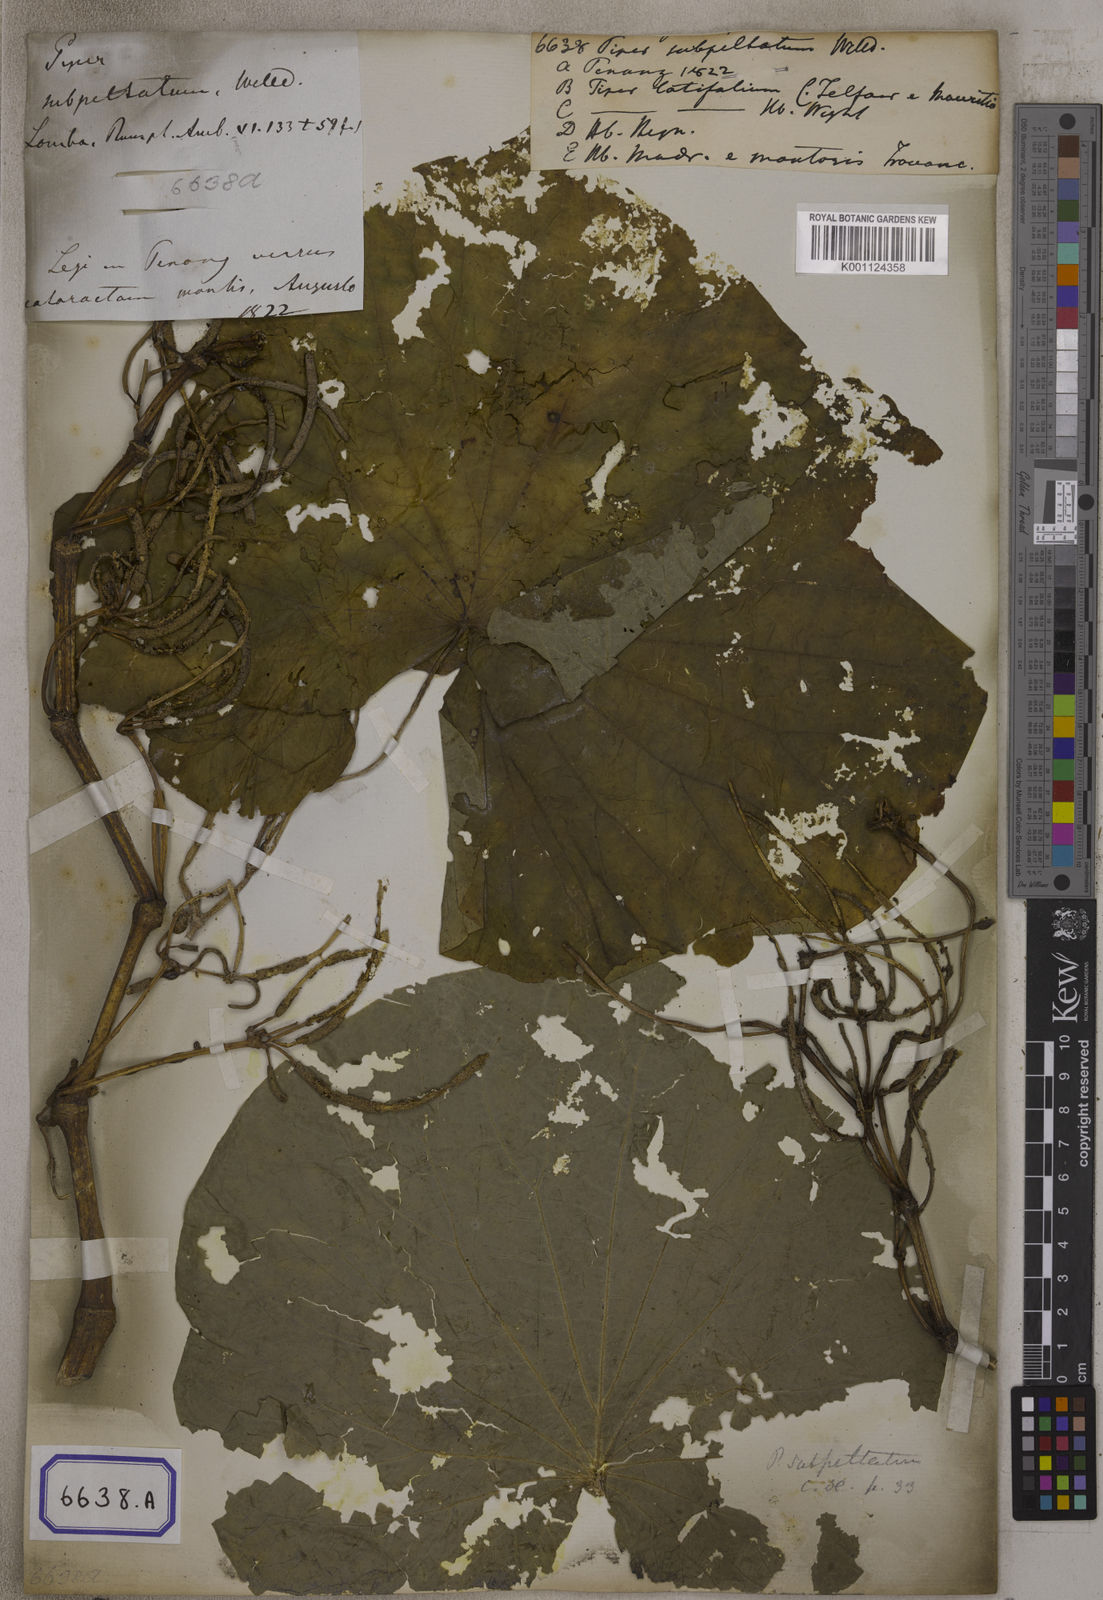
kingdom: Plantae
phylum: Tracheophyta
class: Magnoliopsida
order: Piperales
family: Piperaceae
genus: Piper
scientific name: Piper umbellatum
